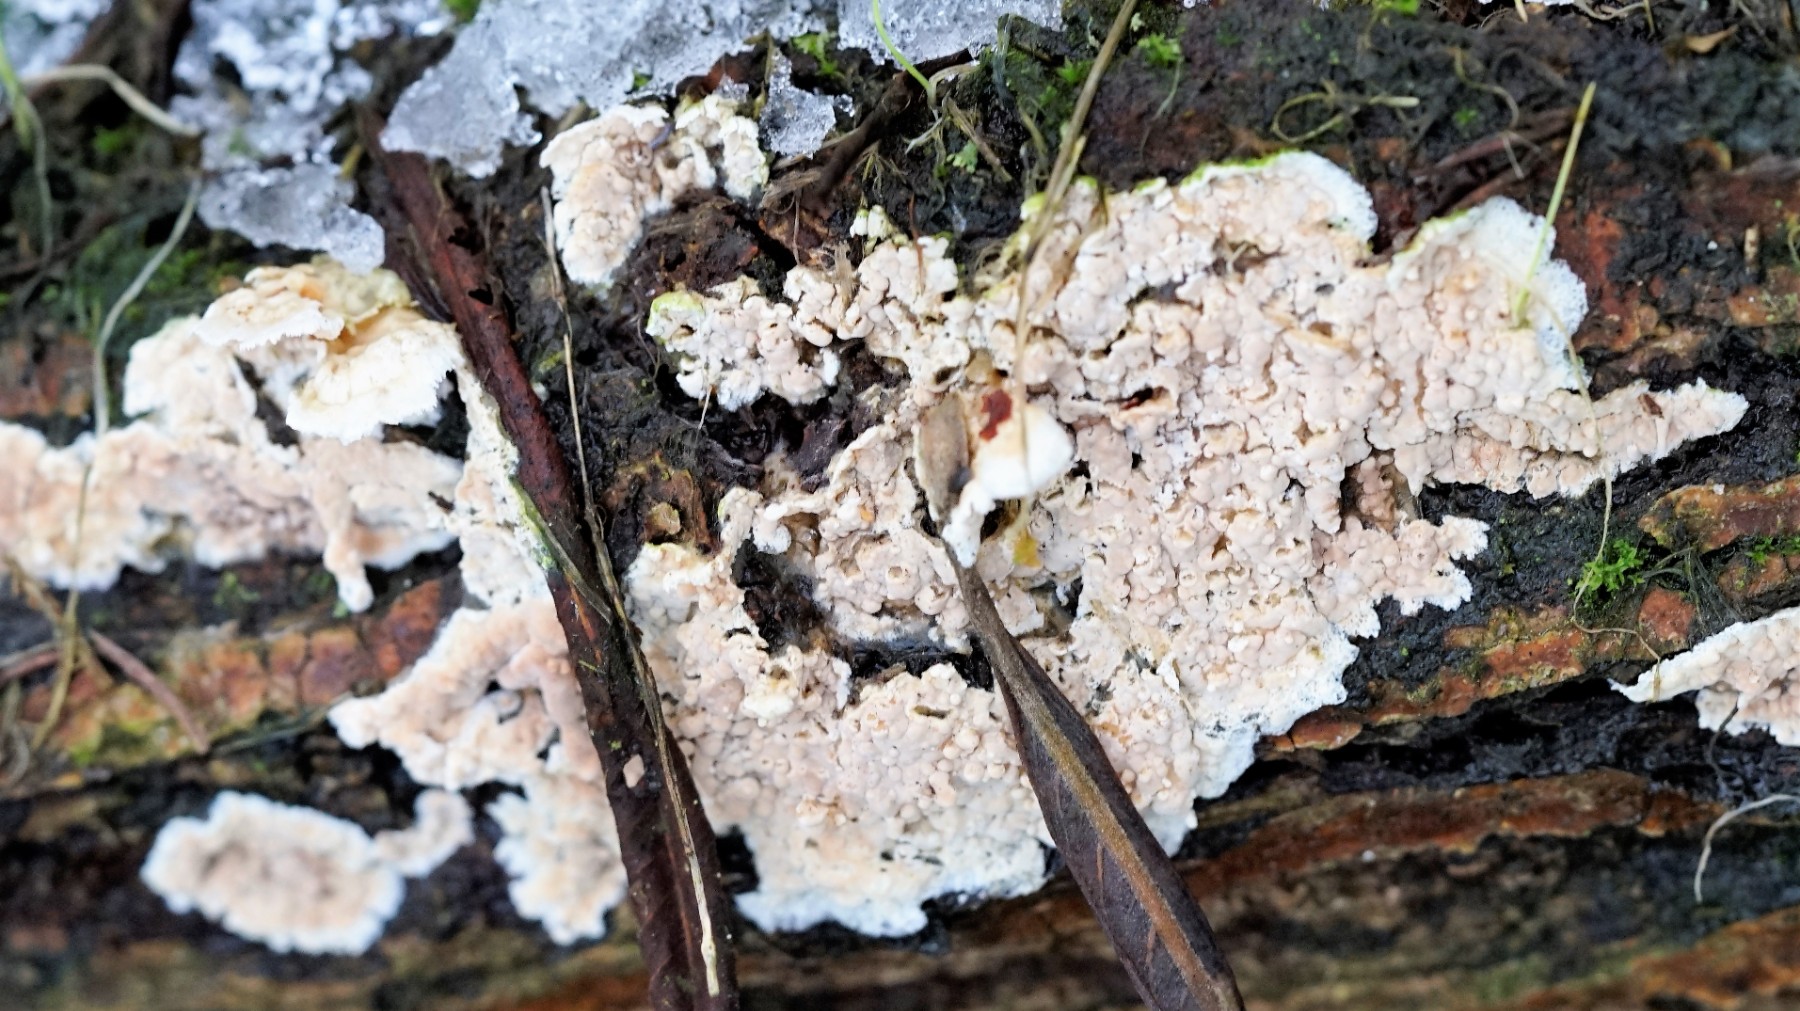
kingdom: Fungi
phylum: Basidiomycota
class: Agaricomycetes
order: Corticiales
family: Corticiaceae
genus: Corticium
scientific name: Corticium roseum
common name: rosa barkskind
